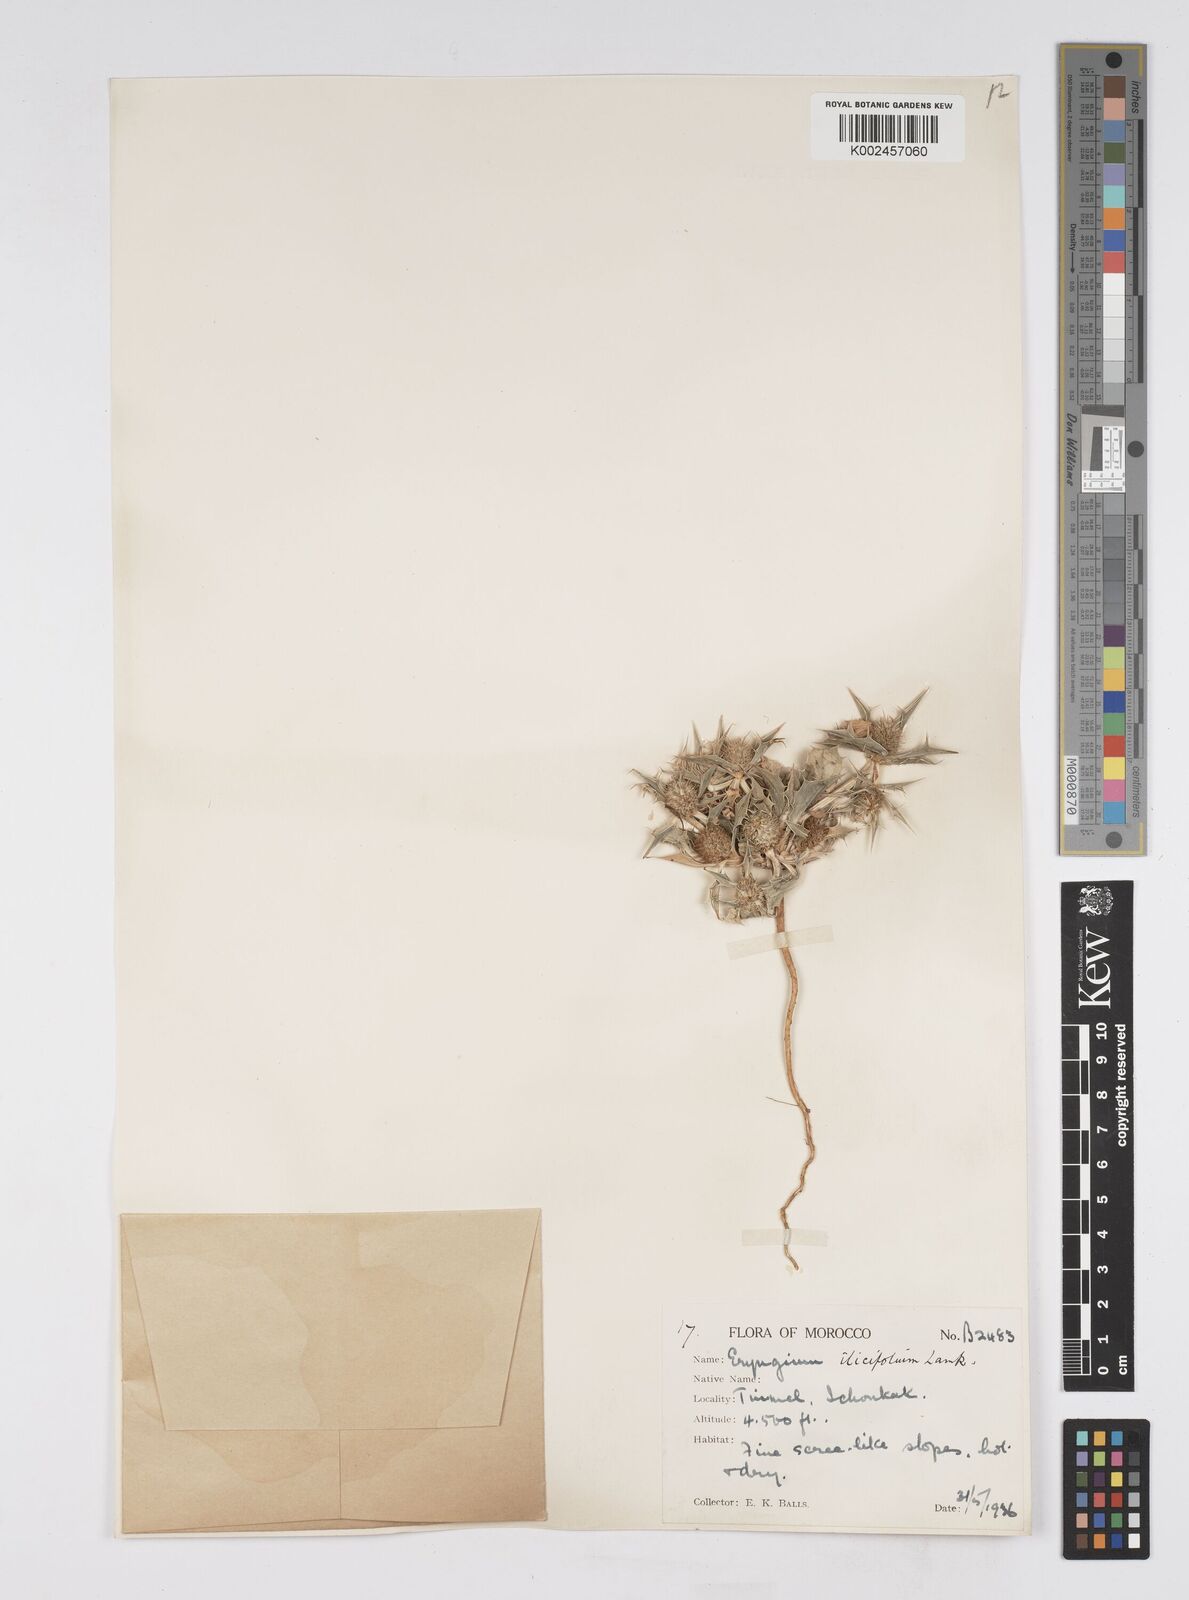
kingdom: Plantae
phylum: Tracheophyta
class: Magnoliopsida
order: Apiales
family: Apiaceae
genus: Eryngium
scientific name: Eryngium
